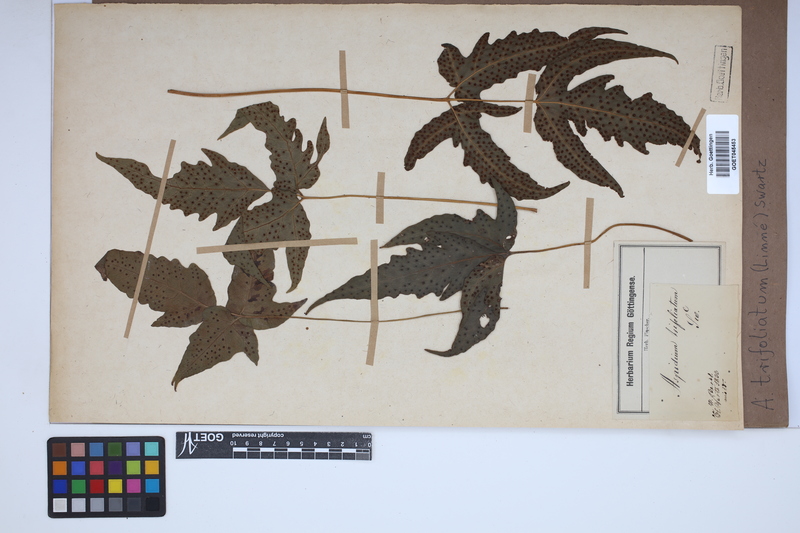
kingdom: Plantae
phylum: Tracheophyta
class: Polypodiopsida
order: Polypodiales
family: Tectariaceae
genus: Tectaria
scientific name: Tectaria trifoliata
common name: Threeleaf halberd fern
